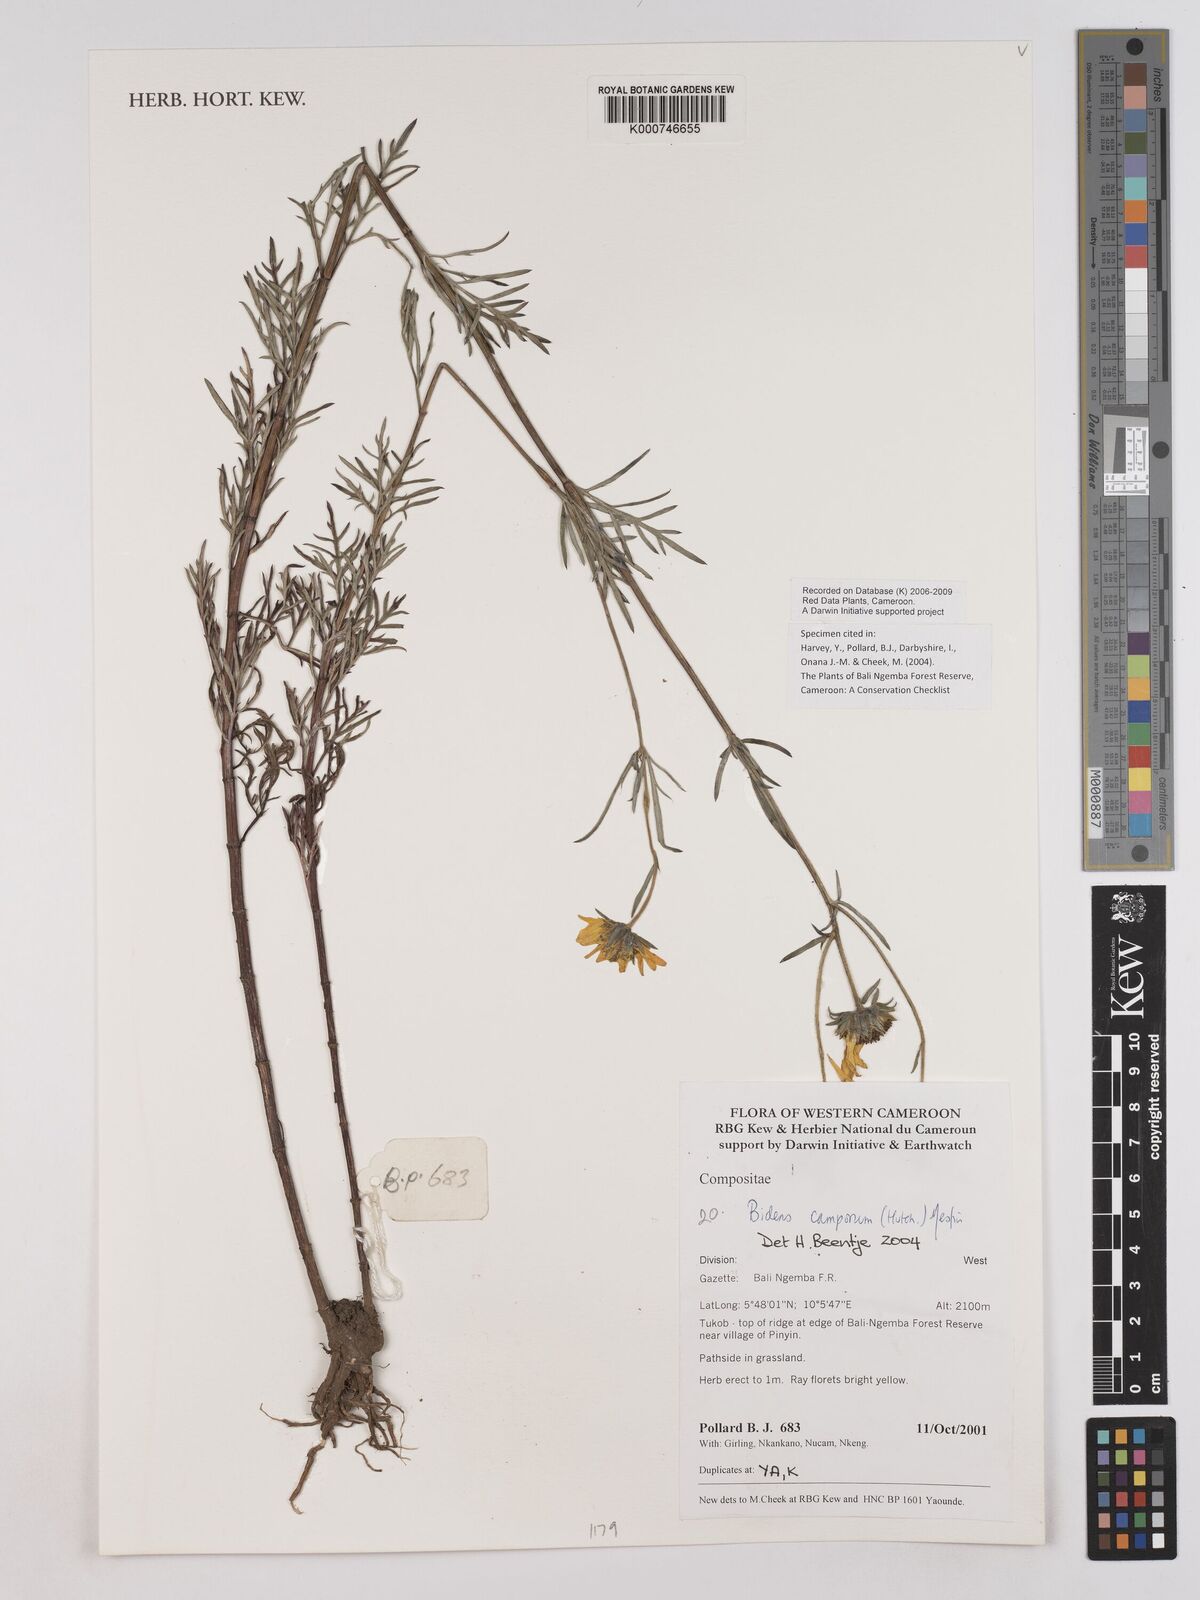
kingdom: Plantae
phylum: Tracheophyta
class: Magnoliopsida
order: Asterales
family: Asteraceae
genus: Bidens
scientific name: Bidens camporum
